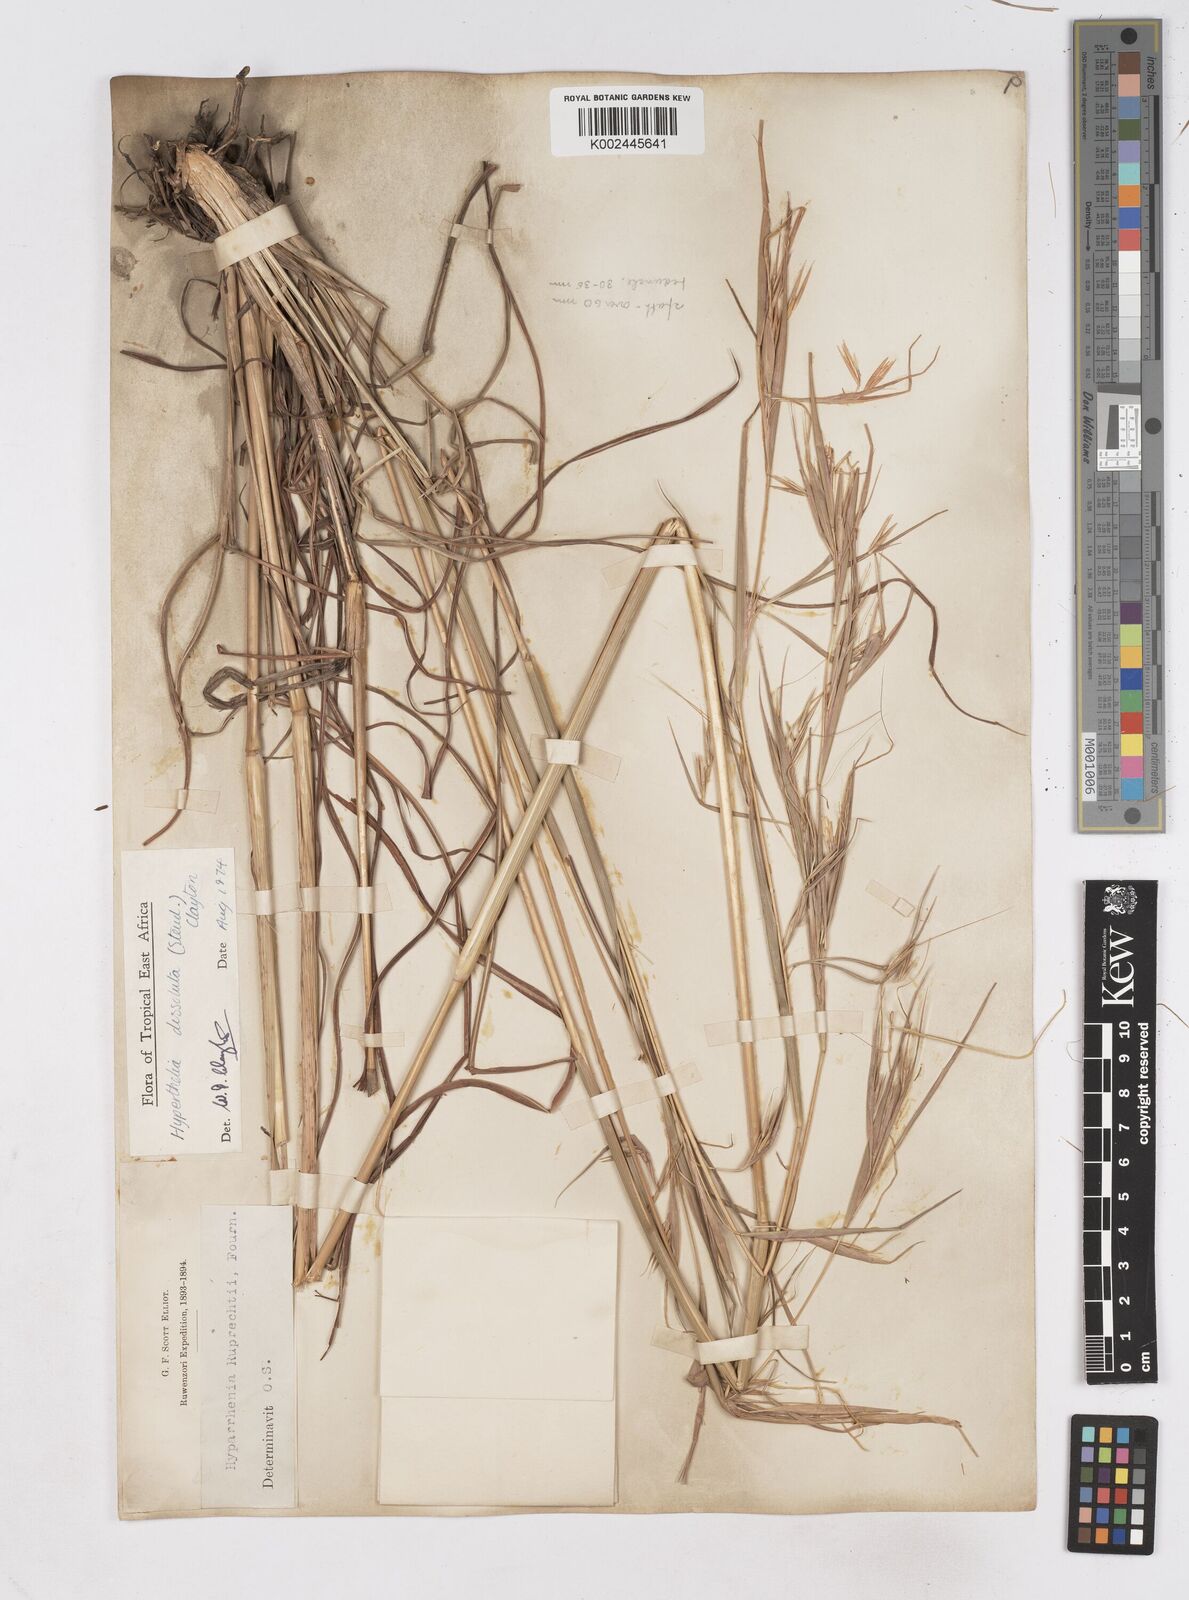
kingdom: Plantae
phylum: Tracheophyta
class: Liliopsida
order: Poales
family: Poaceae
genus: Hyperthelia
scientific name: Hyperthelia dissoluta
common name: Yellow thatching grass
